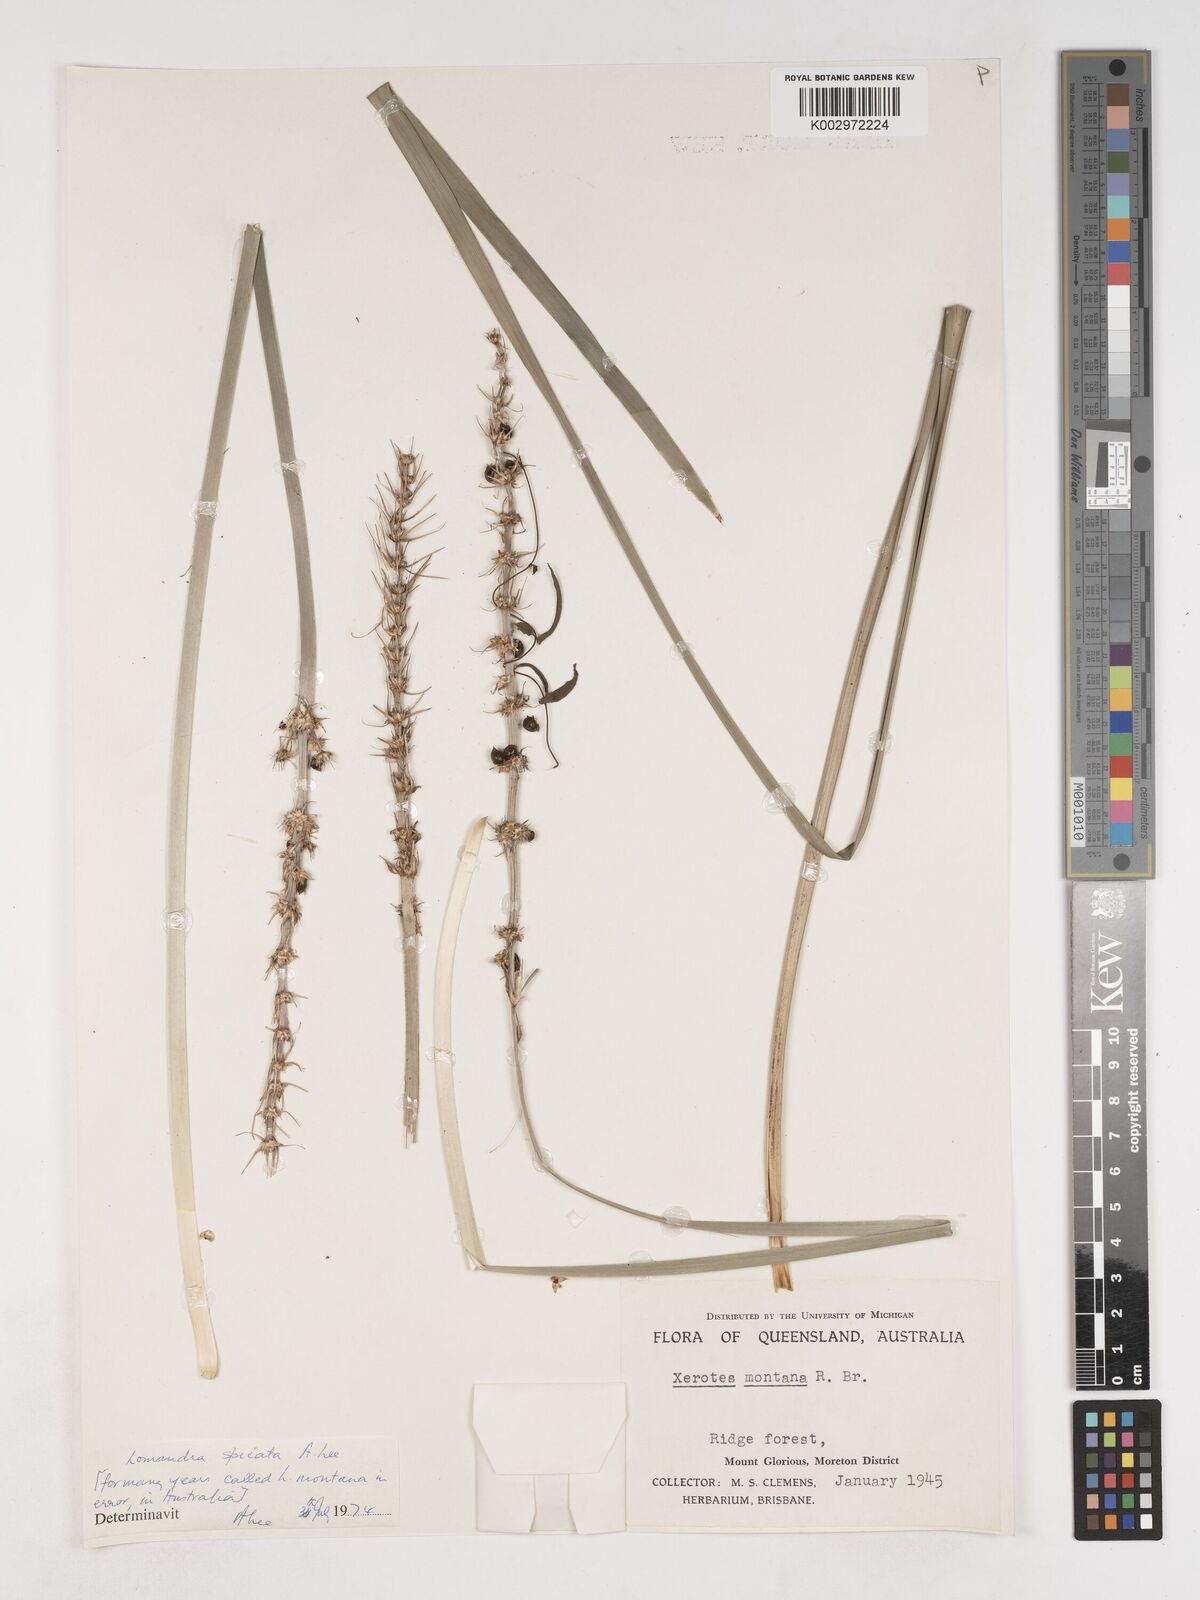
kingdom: Plantae
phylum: Tracheophyta
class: Liliopsida
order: Asparagales
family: Asparagaceae
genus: Lomandra
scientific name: Lomandra spicata
